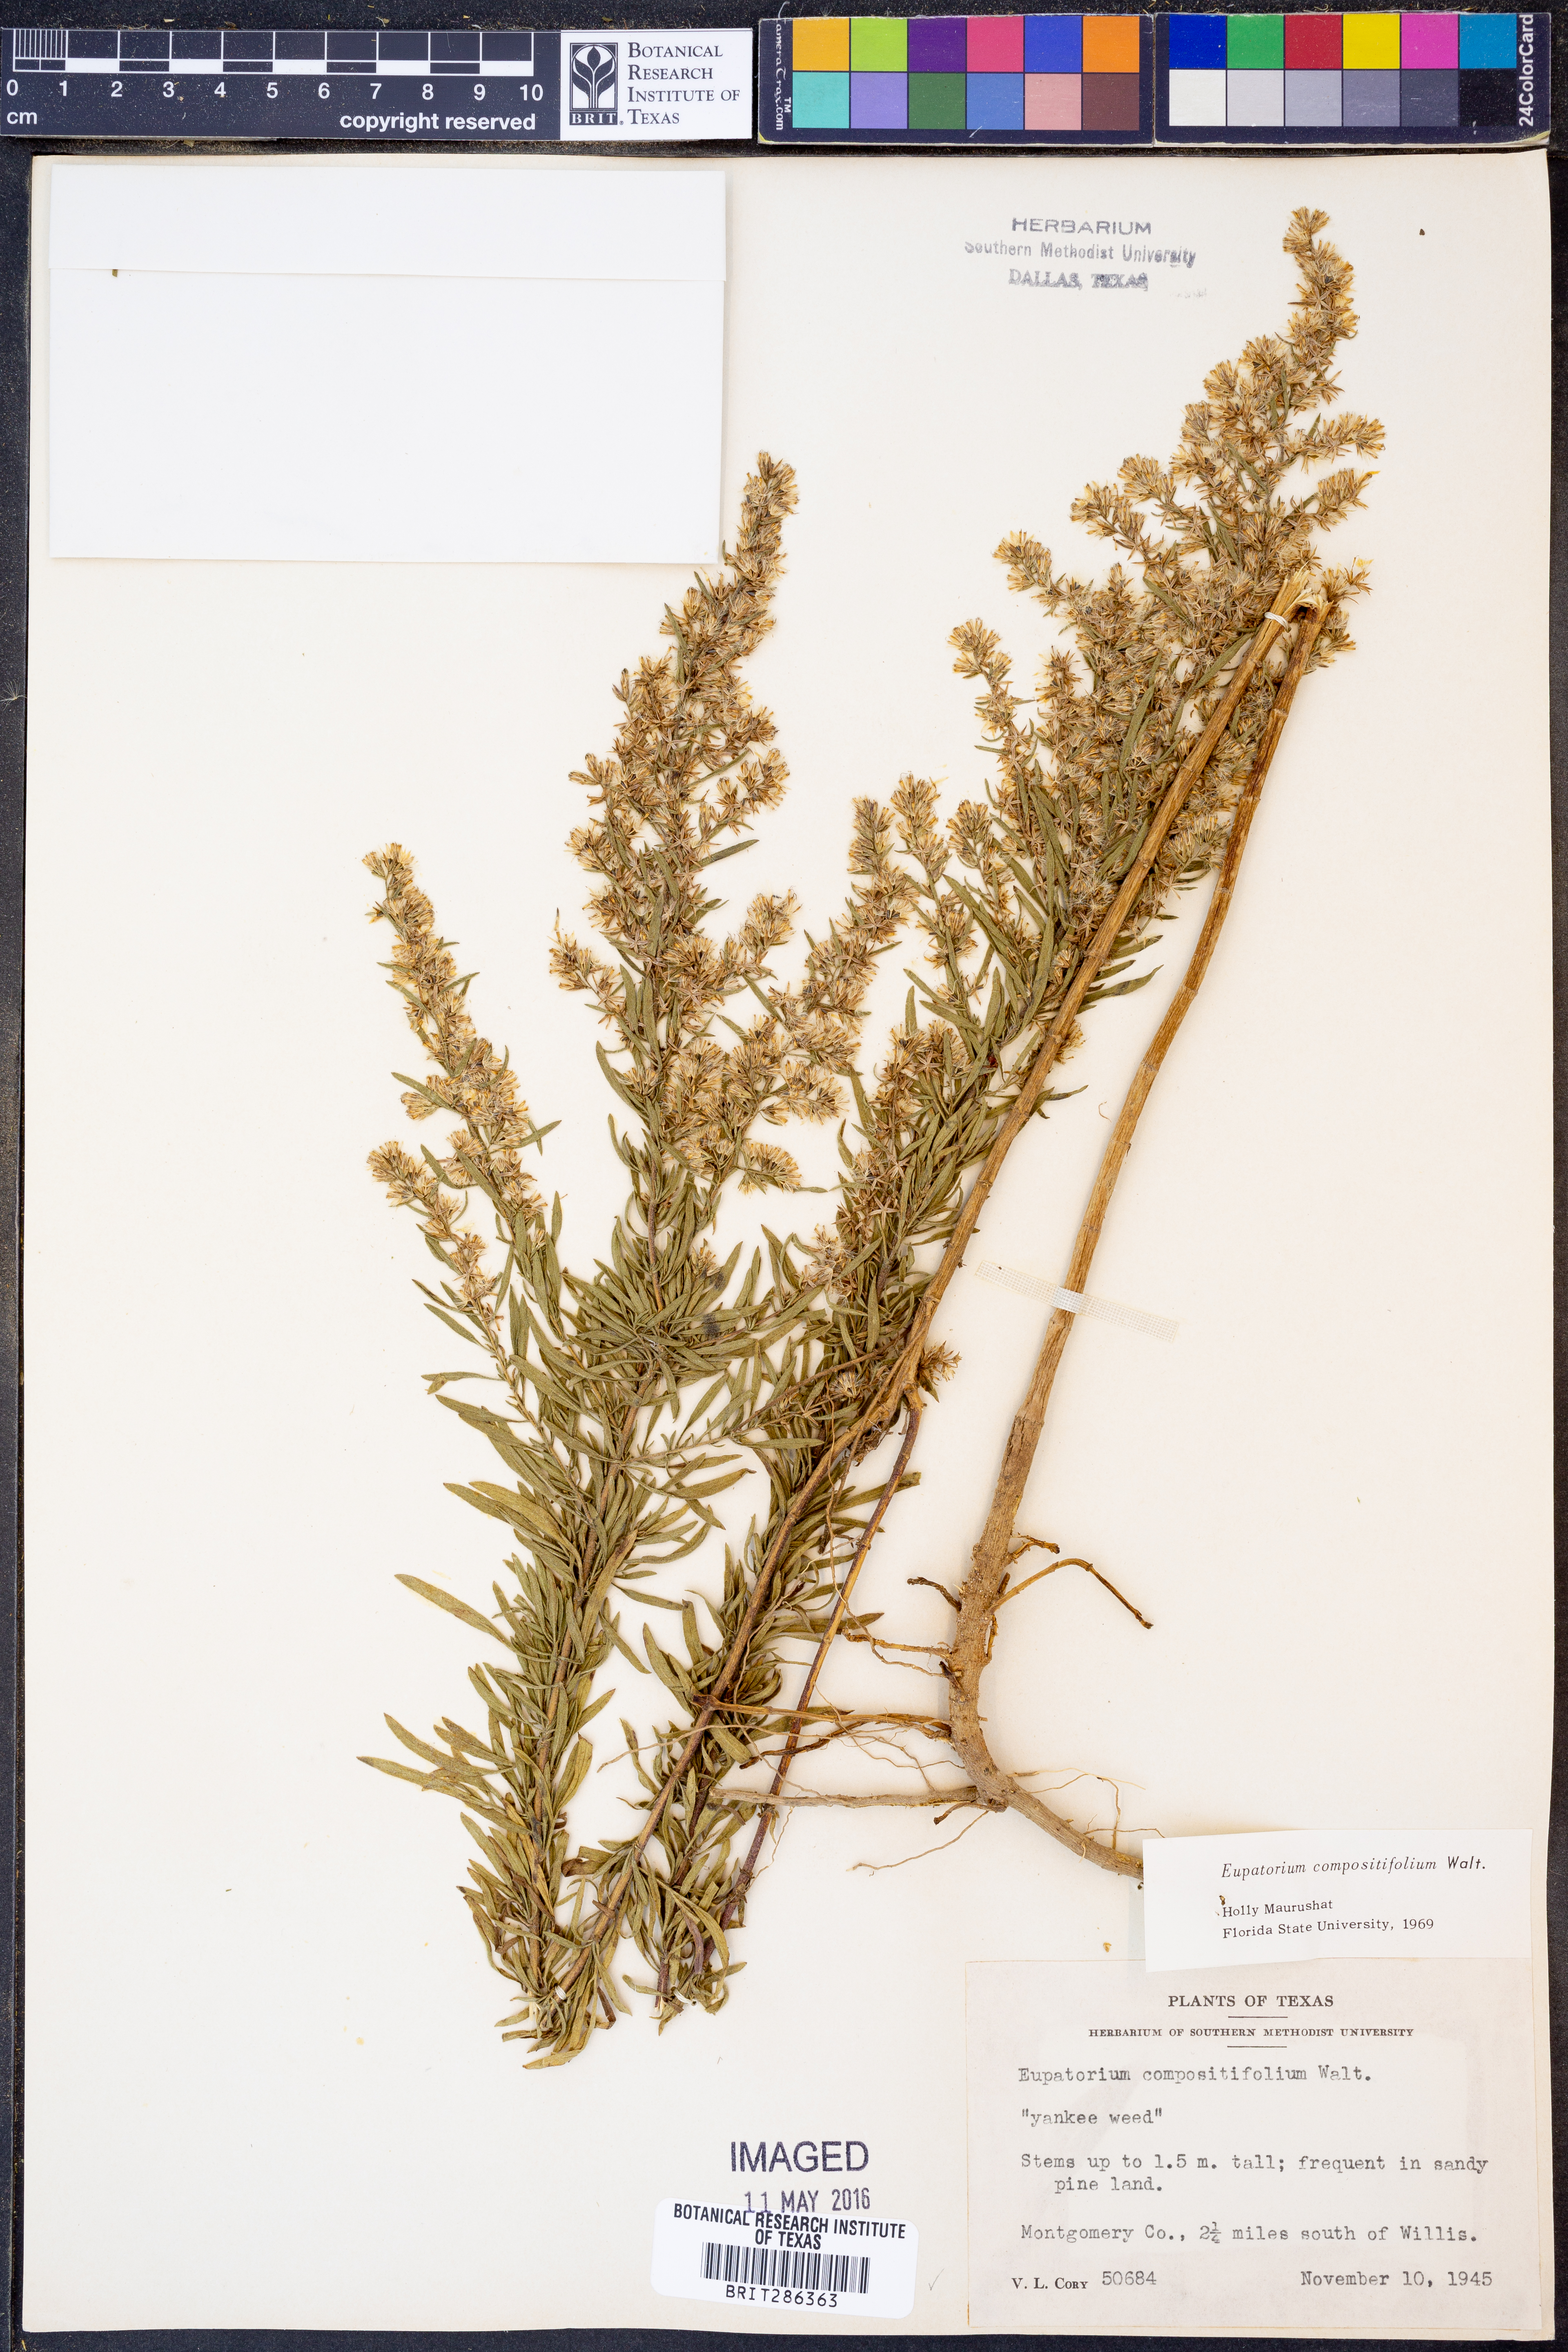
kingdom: Plantae
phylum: Tracheophyta
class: Magnoliopsida
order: Asterales
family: Asteraceae
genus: Eupatorium
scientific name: Eupatorium compositifolium
